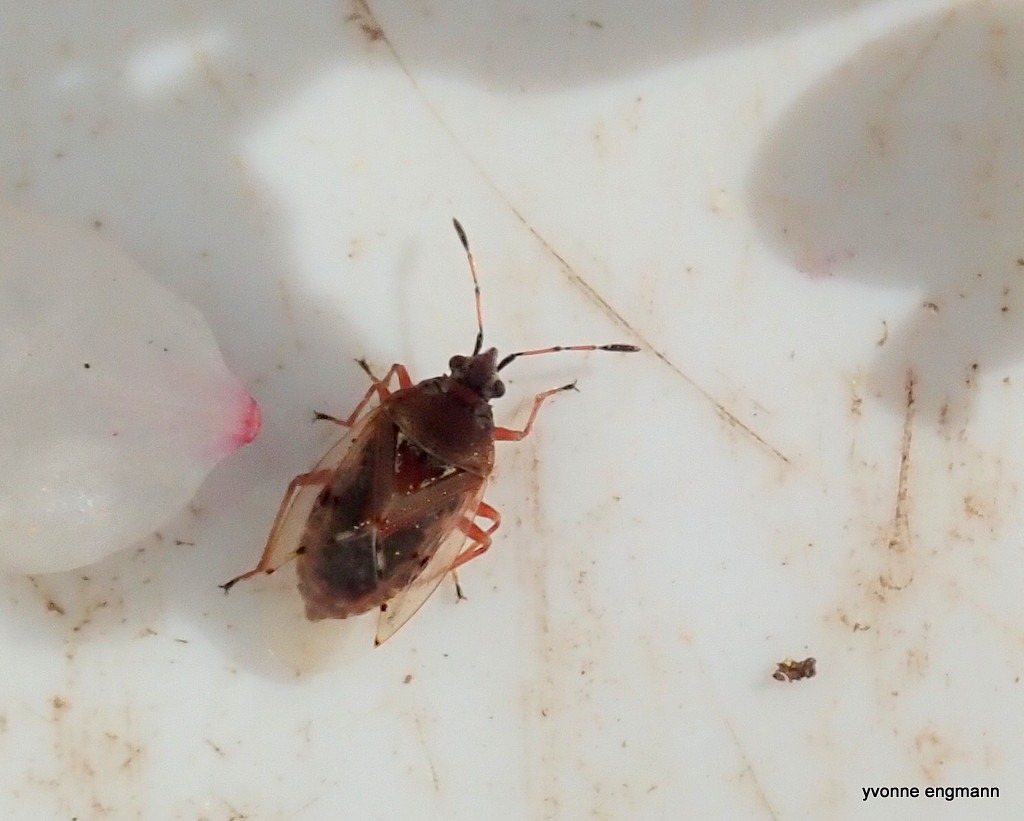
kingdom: Animalia
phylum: Arthropoda
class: Insecta
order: Hemiptera
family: Lygaeidae
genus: Kleidocerys
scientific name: Kleidocerys resedae
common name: Birkefrøtæge
